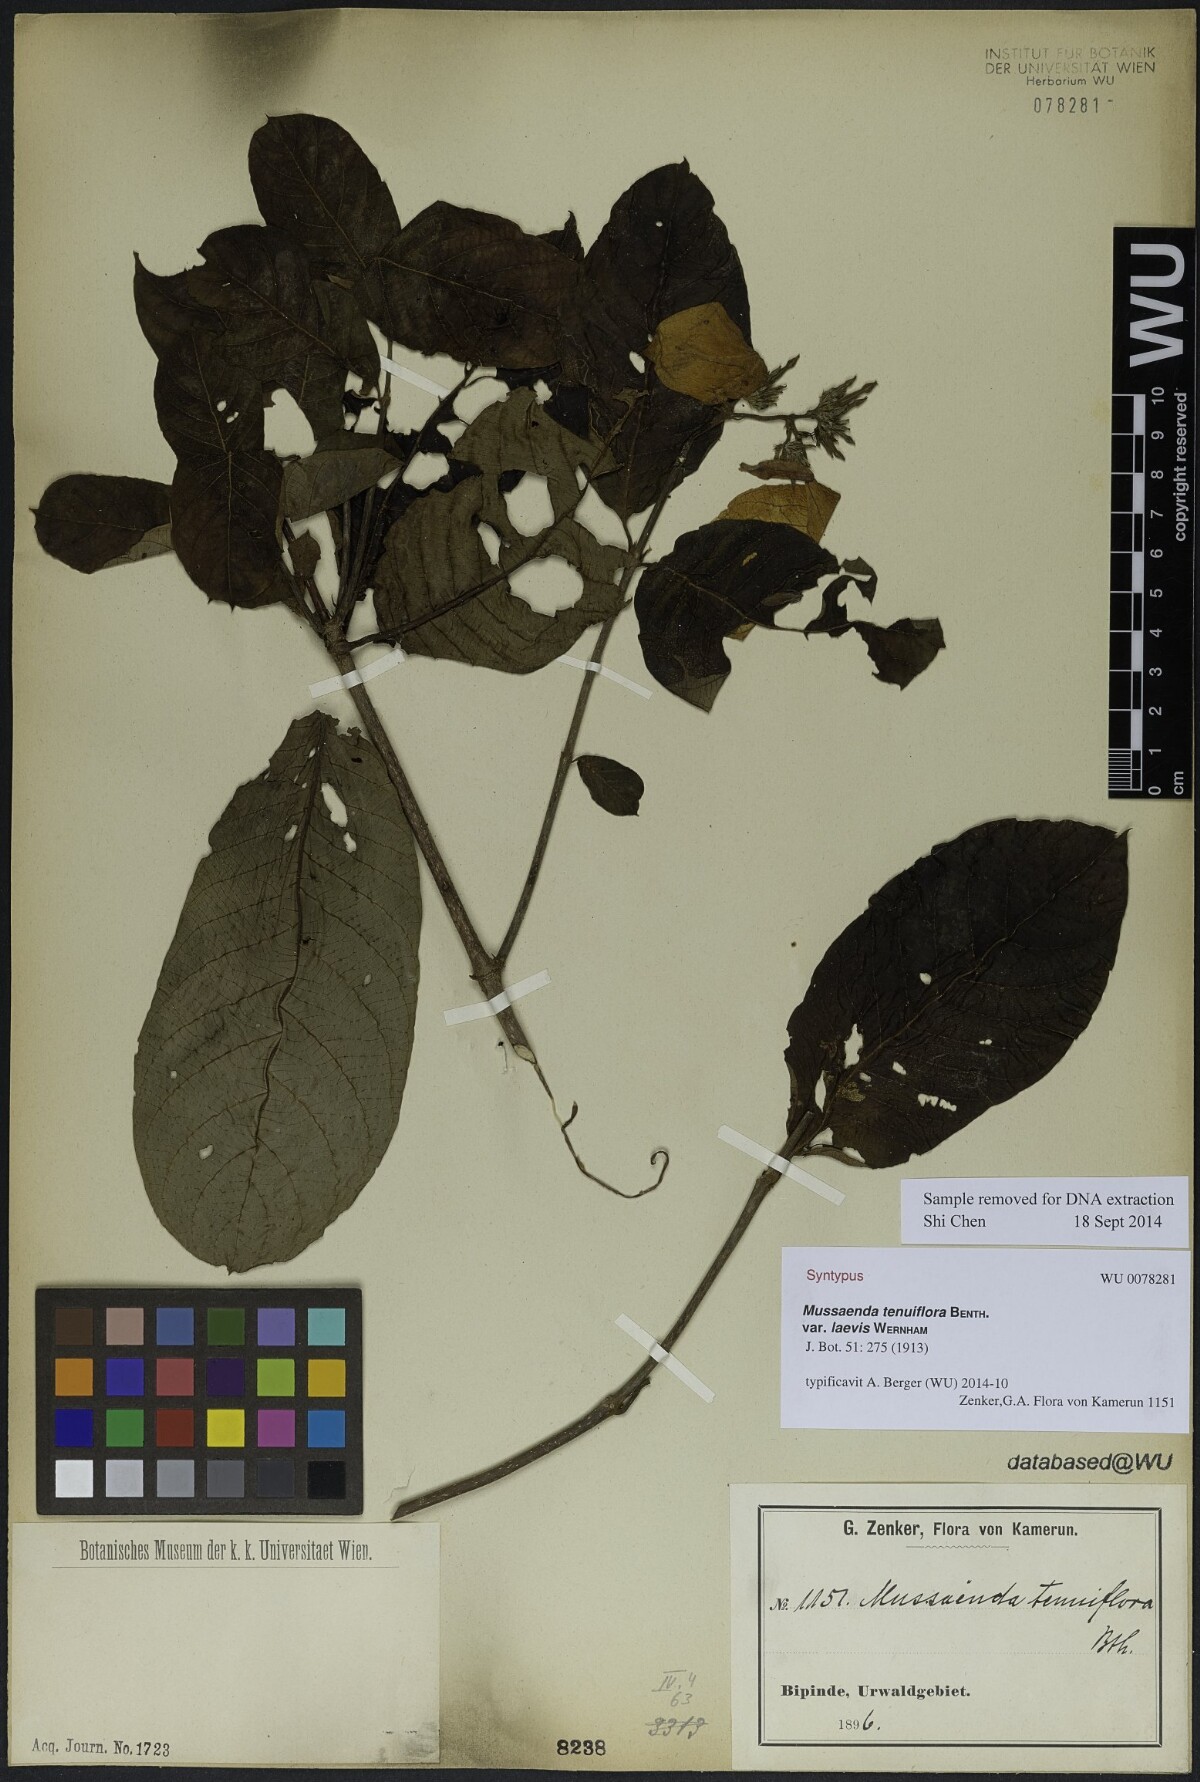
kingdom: Plantae
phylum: Tracheophyta
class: Magnoliopsida
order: Gentianales
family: Rubiaceae
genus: Mussaenda
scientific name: Mussaenda tenuiflora
